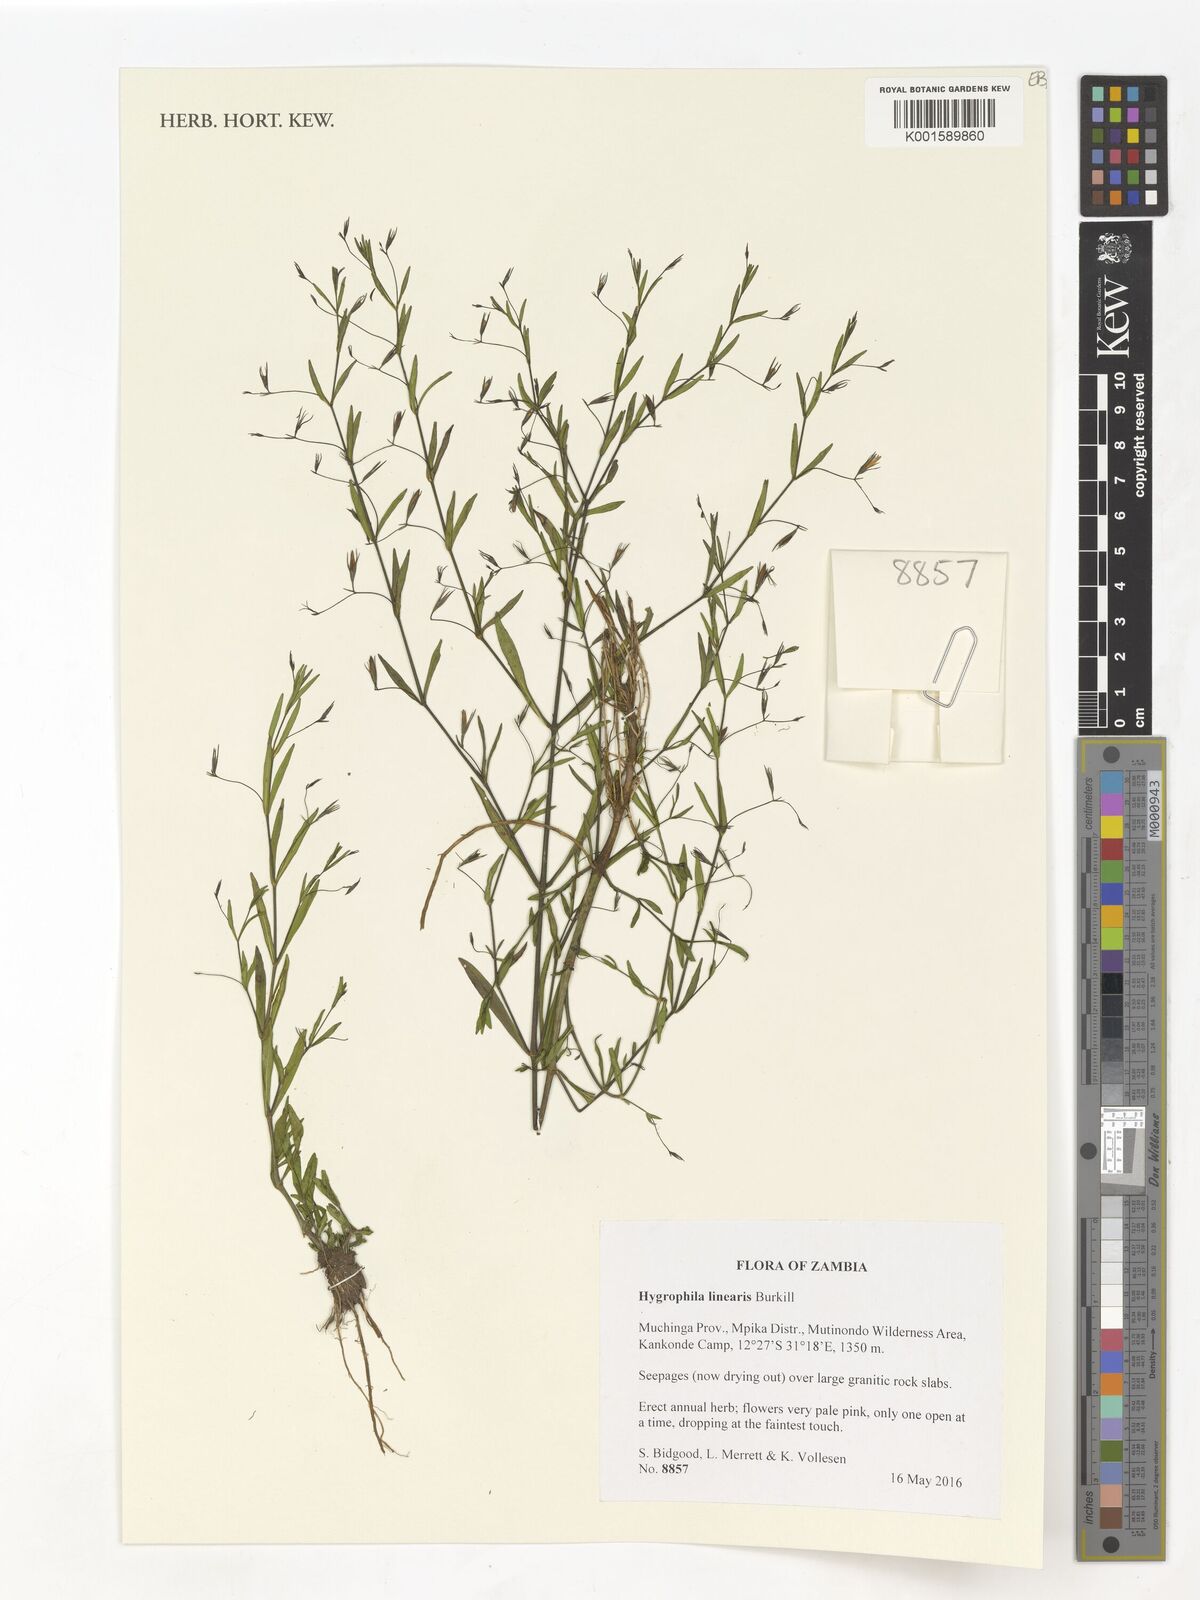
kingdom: Plantae
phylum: Tracheophyta
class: Magnoliopsida
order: Lamiales
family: Acanthaceae
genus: Hygrophila
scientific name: Hygrophila linearis
